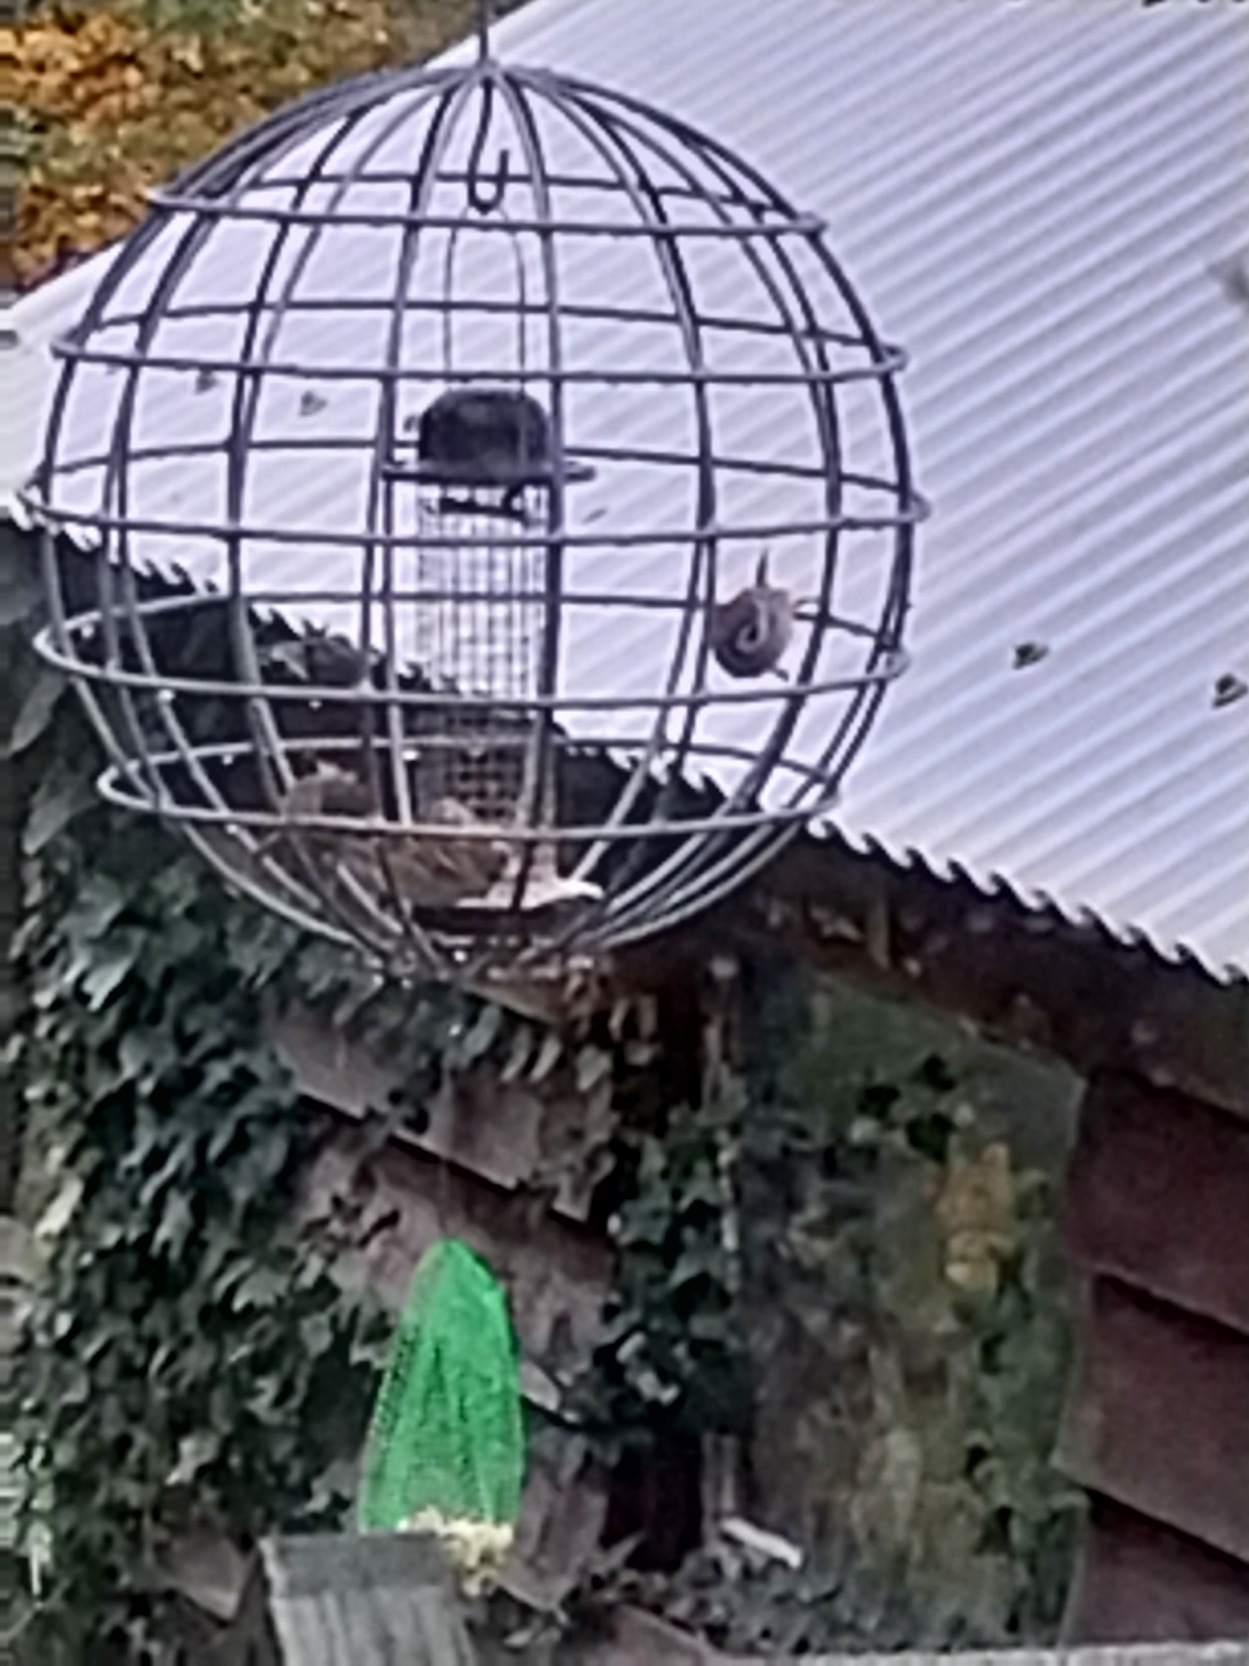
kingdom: Animalia
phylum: Chordata
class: Aves
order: Passeriformes
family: Passeridae
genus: Passer
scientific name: Passer montanus
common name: Skovspurv
